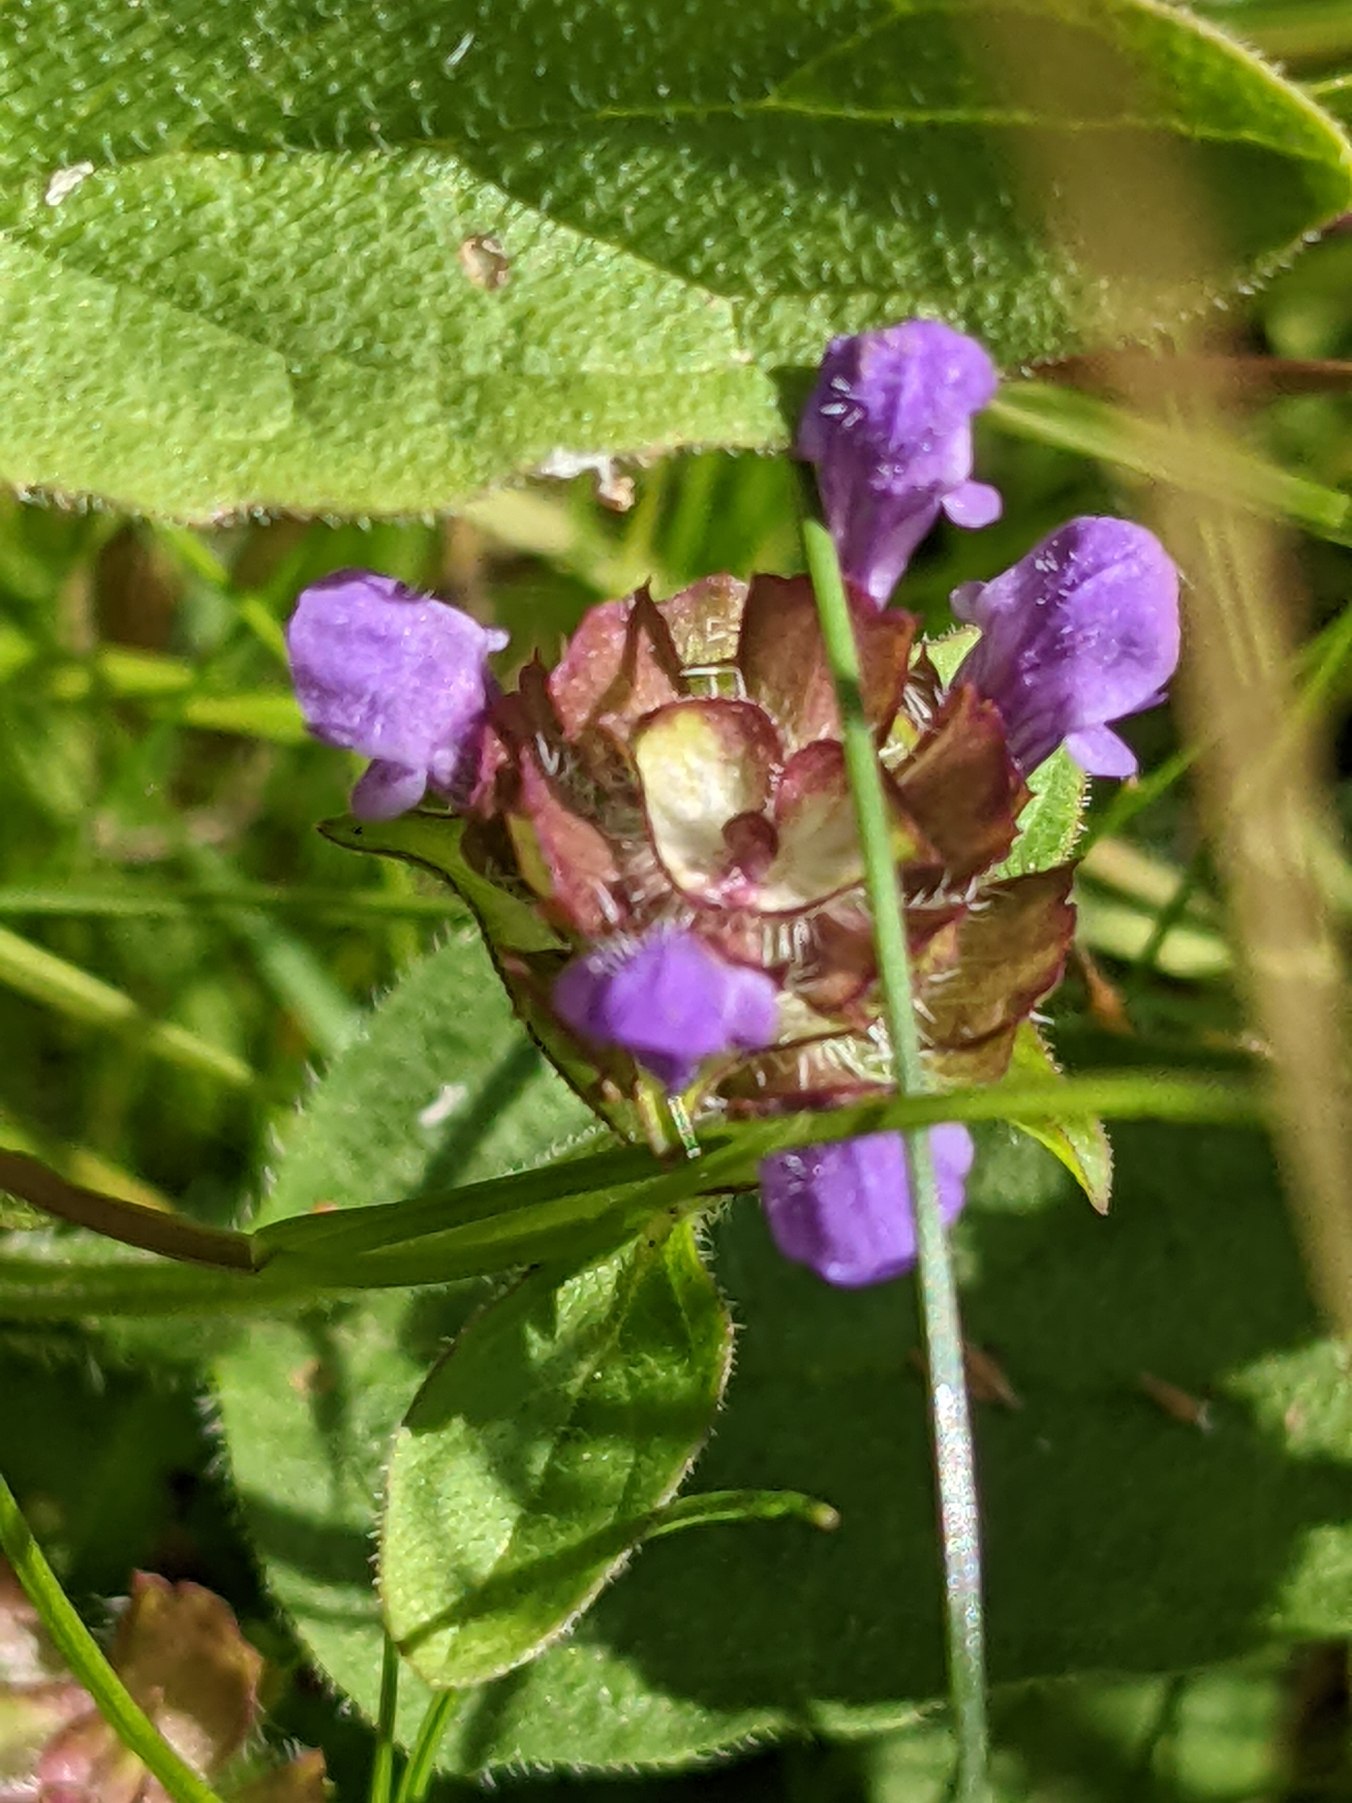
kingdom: Plantae
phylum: Tracheophyta
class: Magnoliopsida
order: Lamiales
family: Lamiaceae
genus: Prunella
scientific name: Prunella vulgaris
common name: Almindelig brunelle
